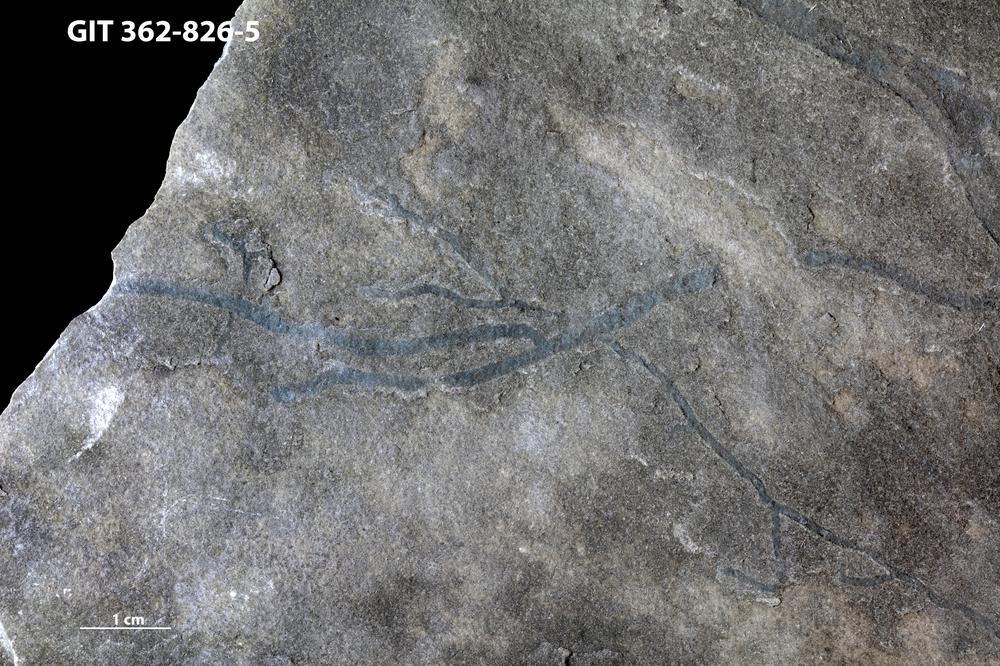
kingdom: Animalia
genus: Pilichnus
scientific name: Pilichnus
